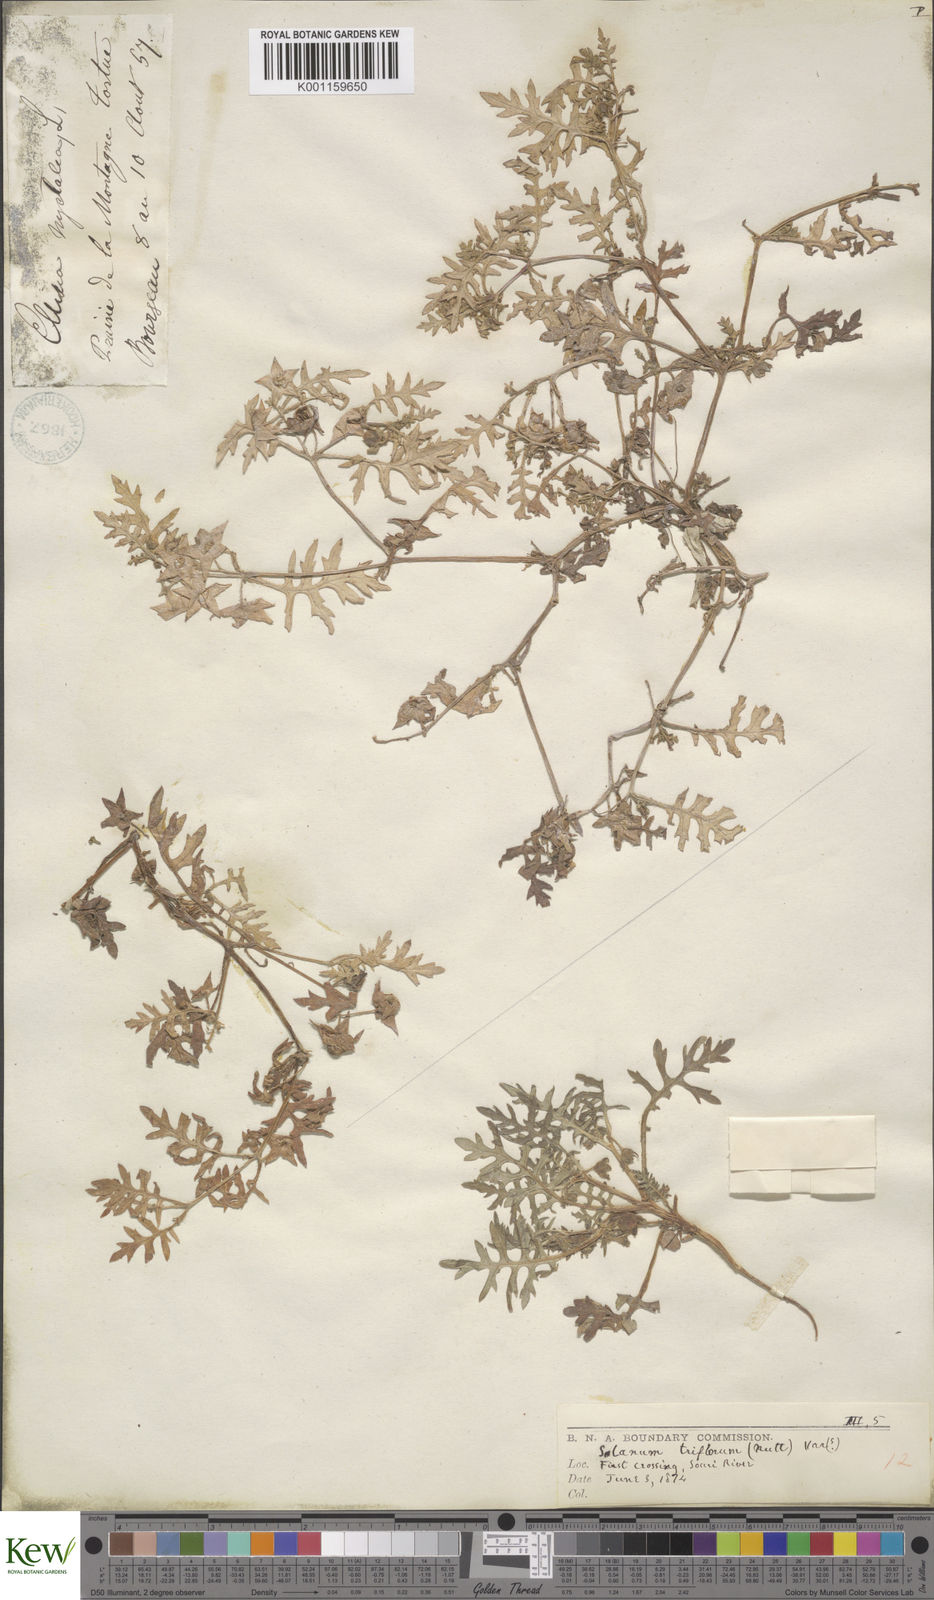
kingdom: Plantae
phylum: Tracheophyta
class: Magnoliopsida
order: Solanales
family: Solanaceae
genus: Solanum
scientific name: Solanum triflorum
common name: Small nightshade
